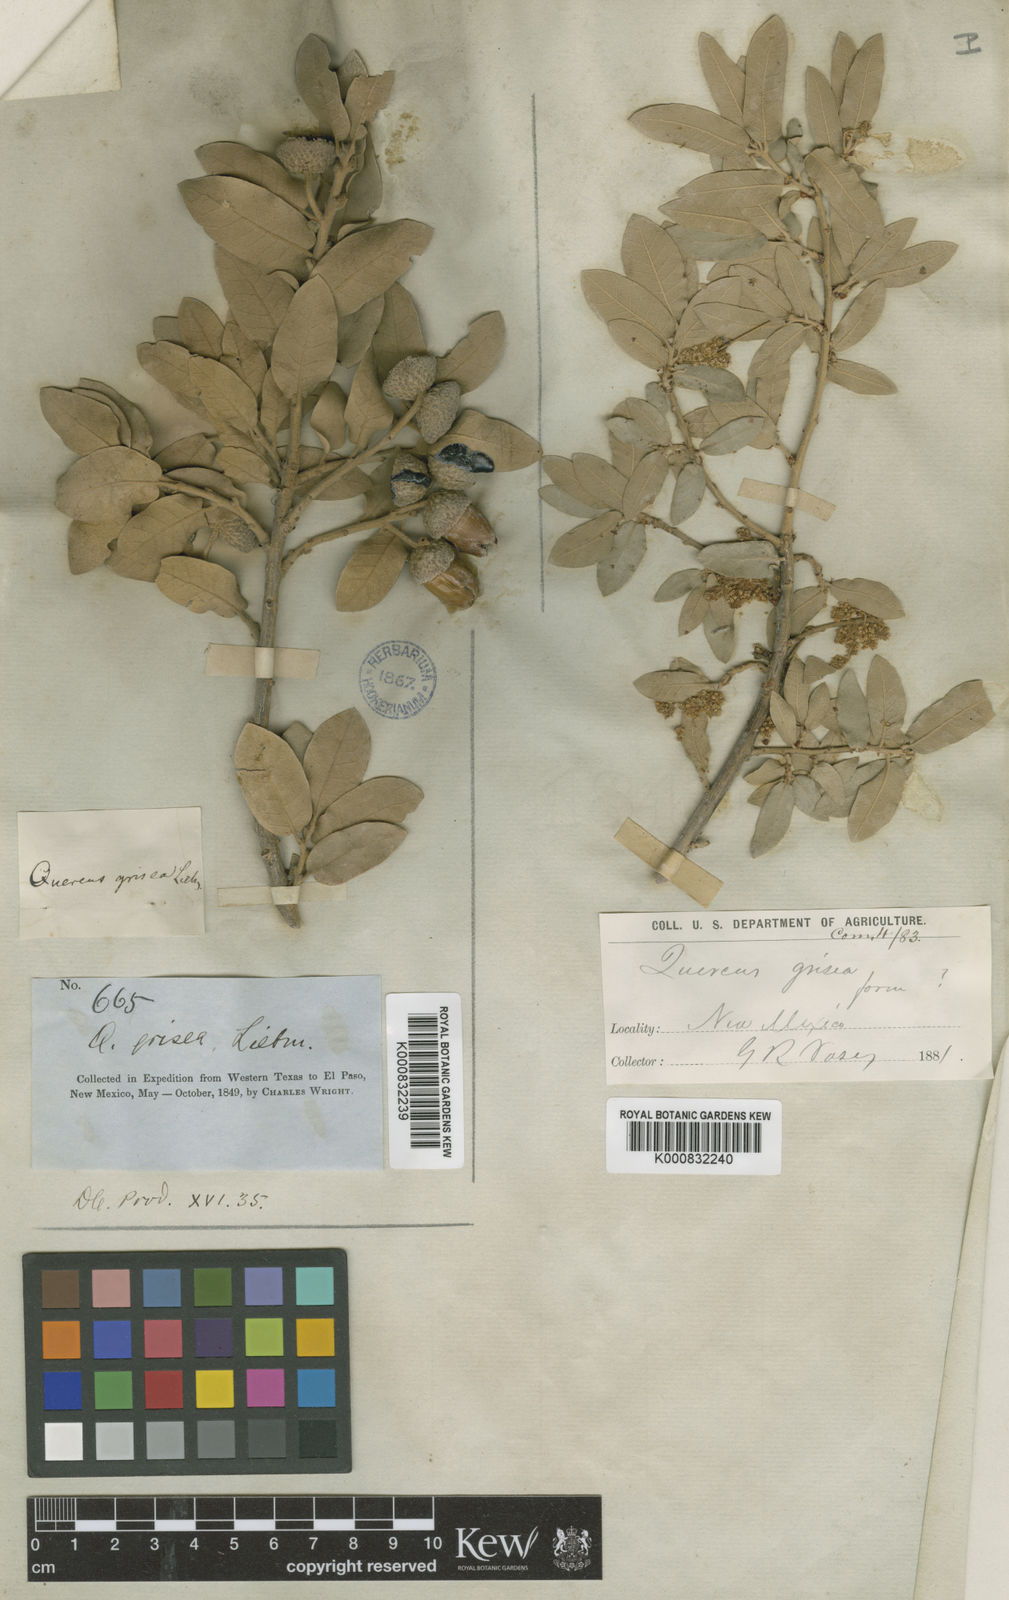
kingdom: Plantae
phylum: Tracheophyta
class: Magnoliopsida
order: Fagales
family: Fagaceae
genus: Quercus
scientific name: Quercus grisea
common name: Gray oak
